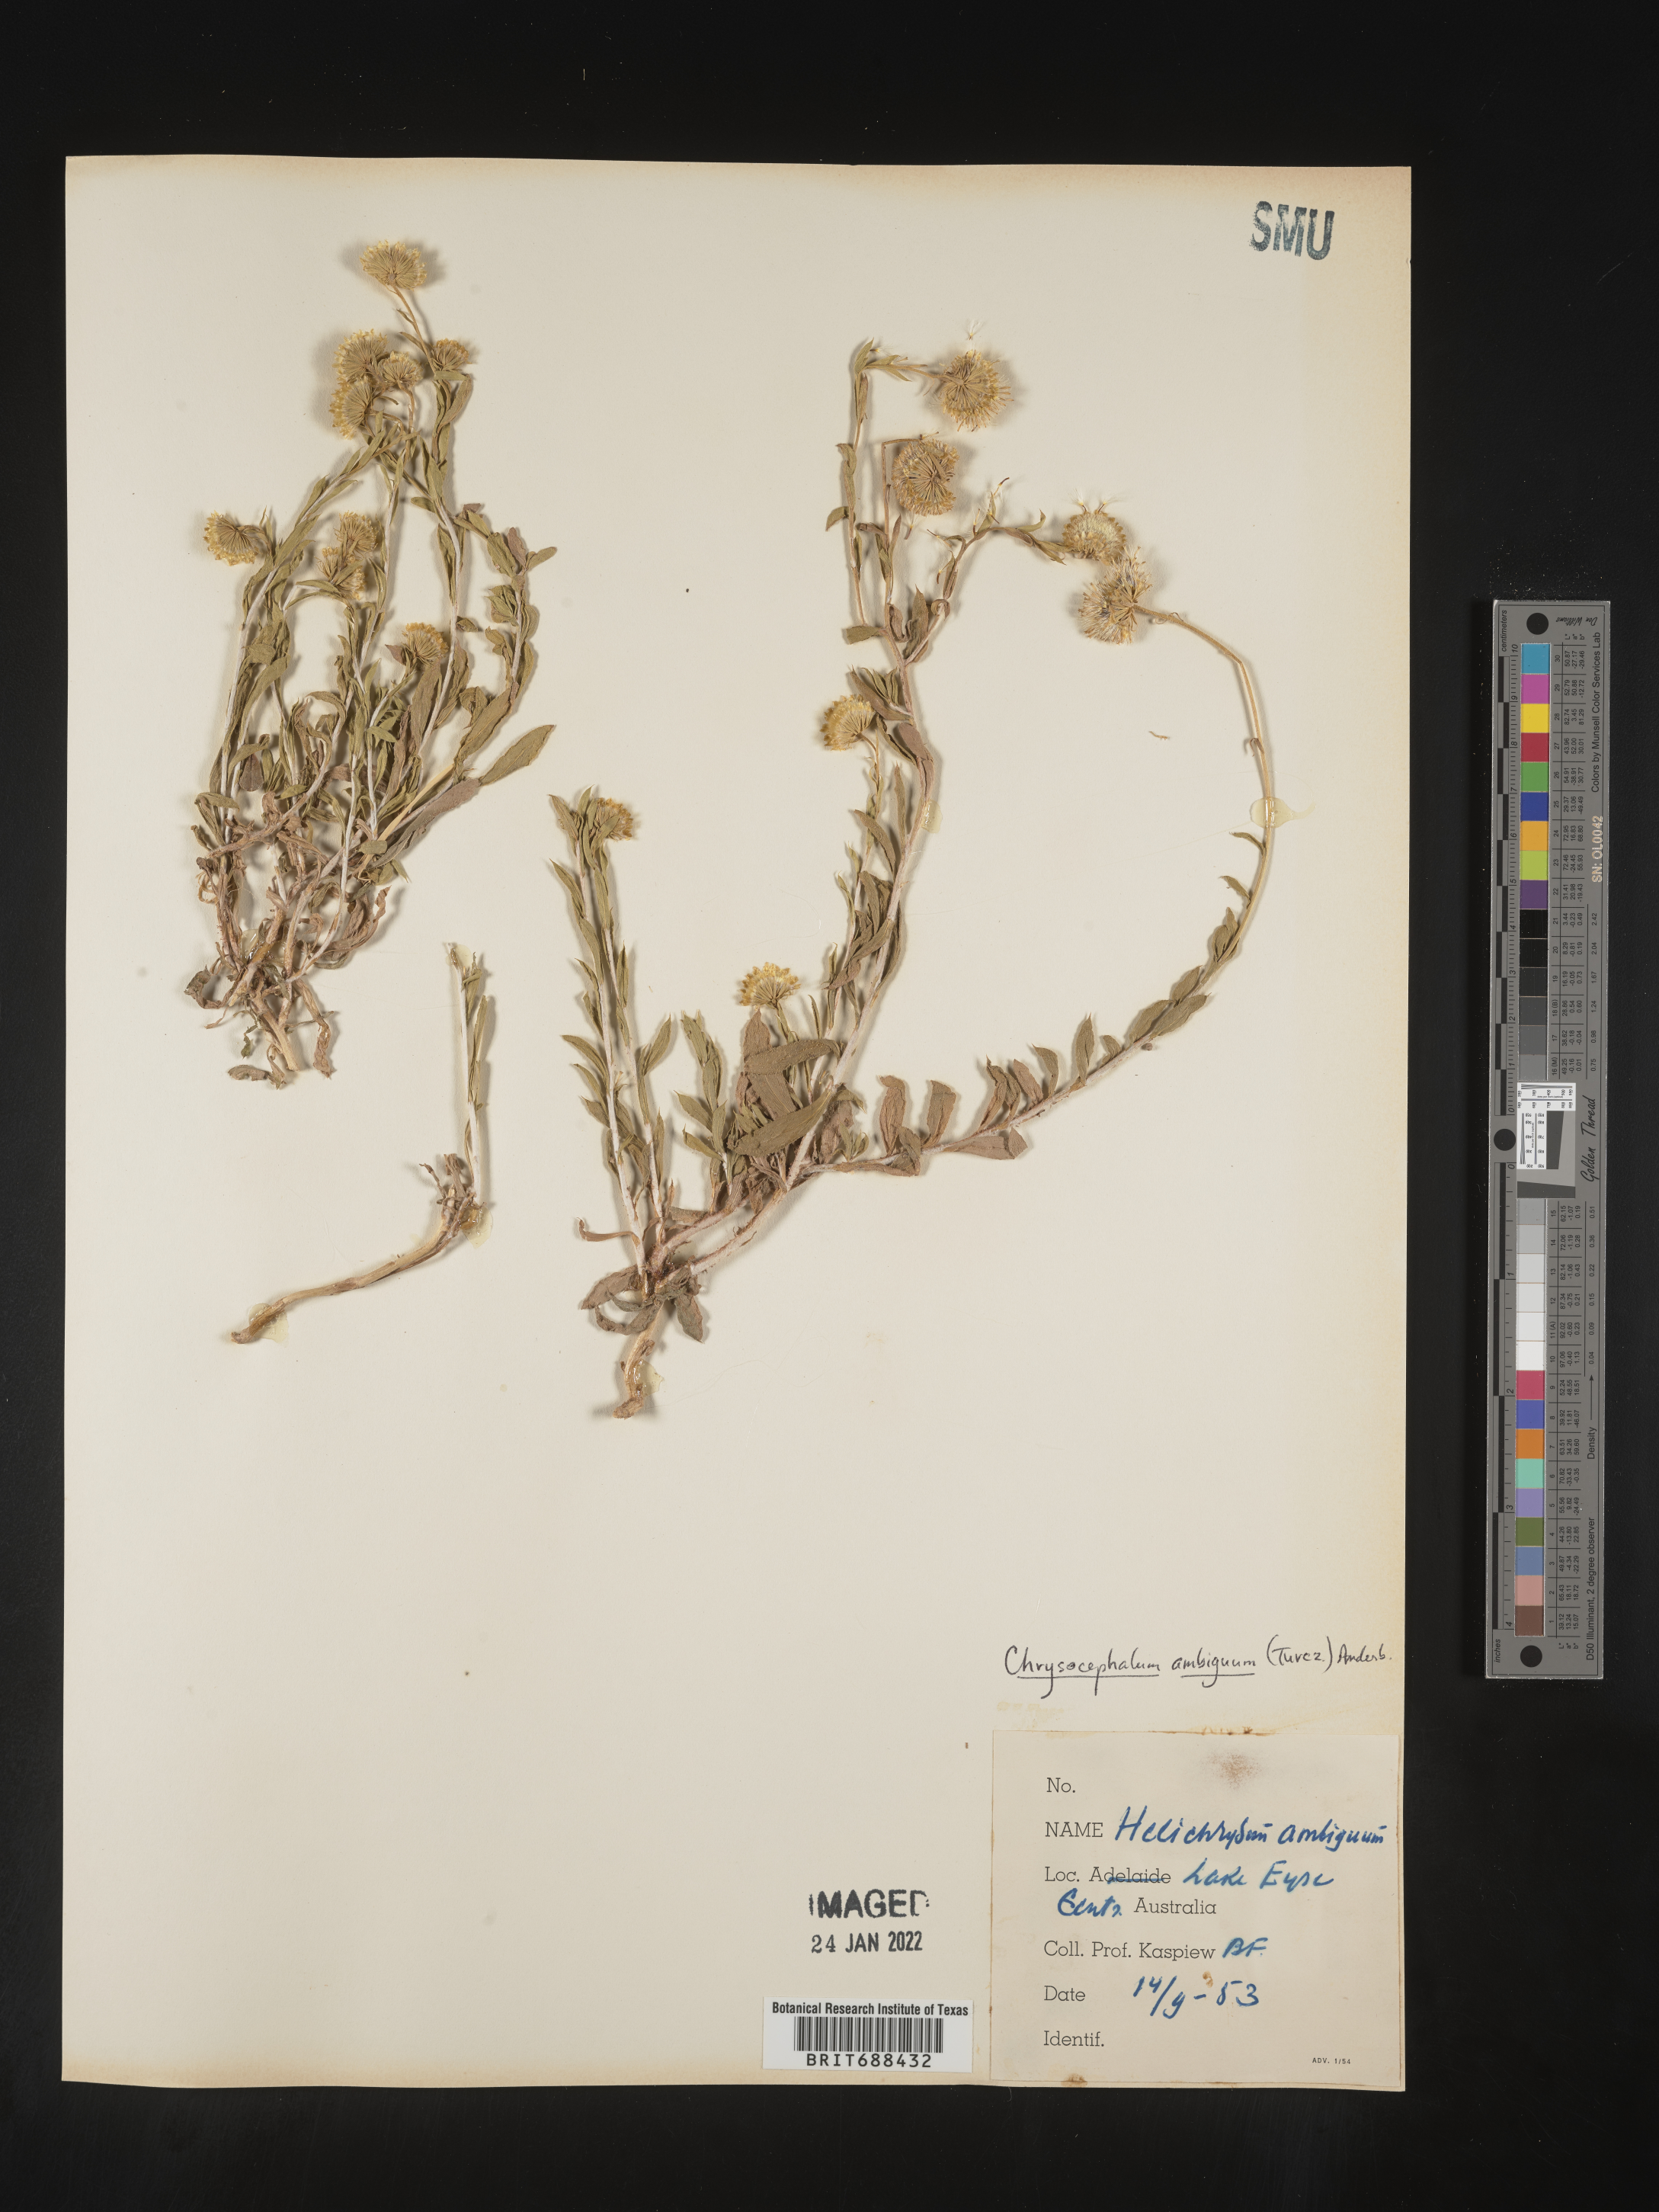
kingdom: Plantae
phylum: Tracheophyta
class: Magnoliopsida
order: Asterales
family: Asteraceae
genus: Chrysocephalum
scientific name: Chrysocephalum
